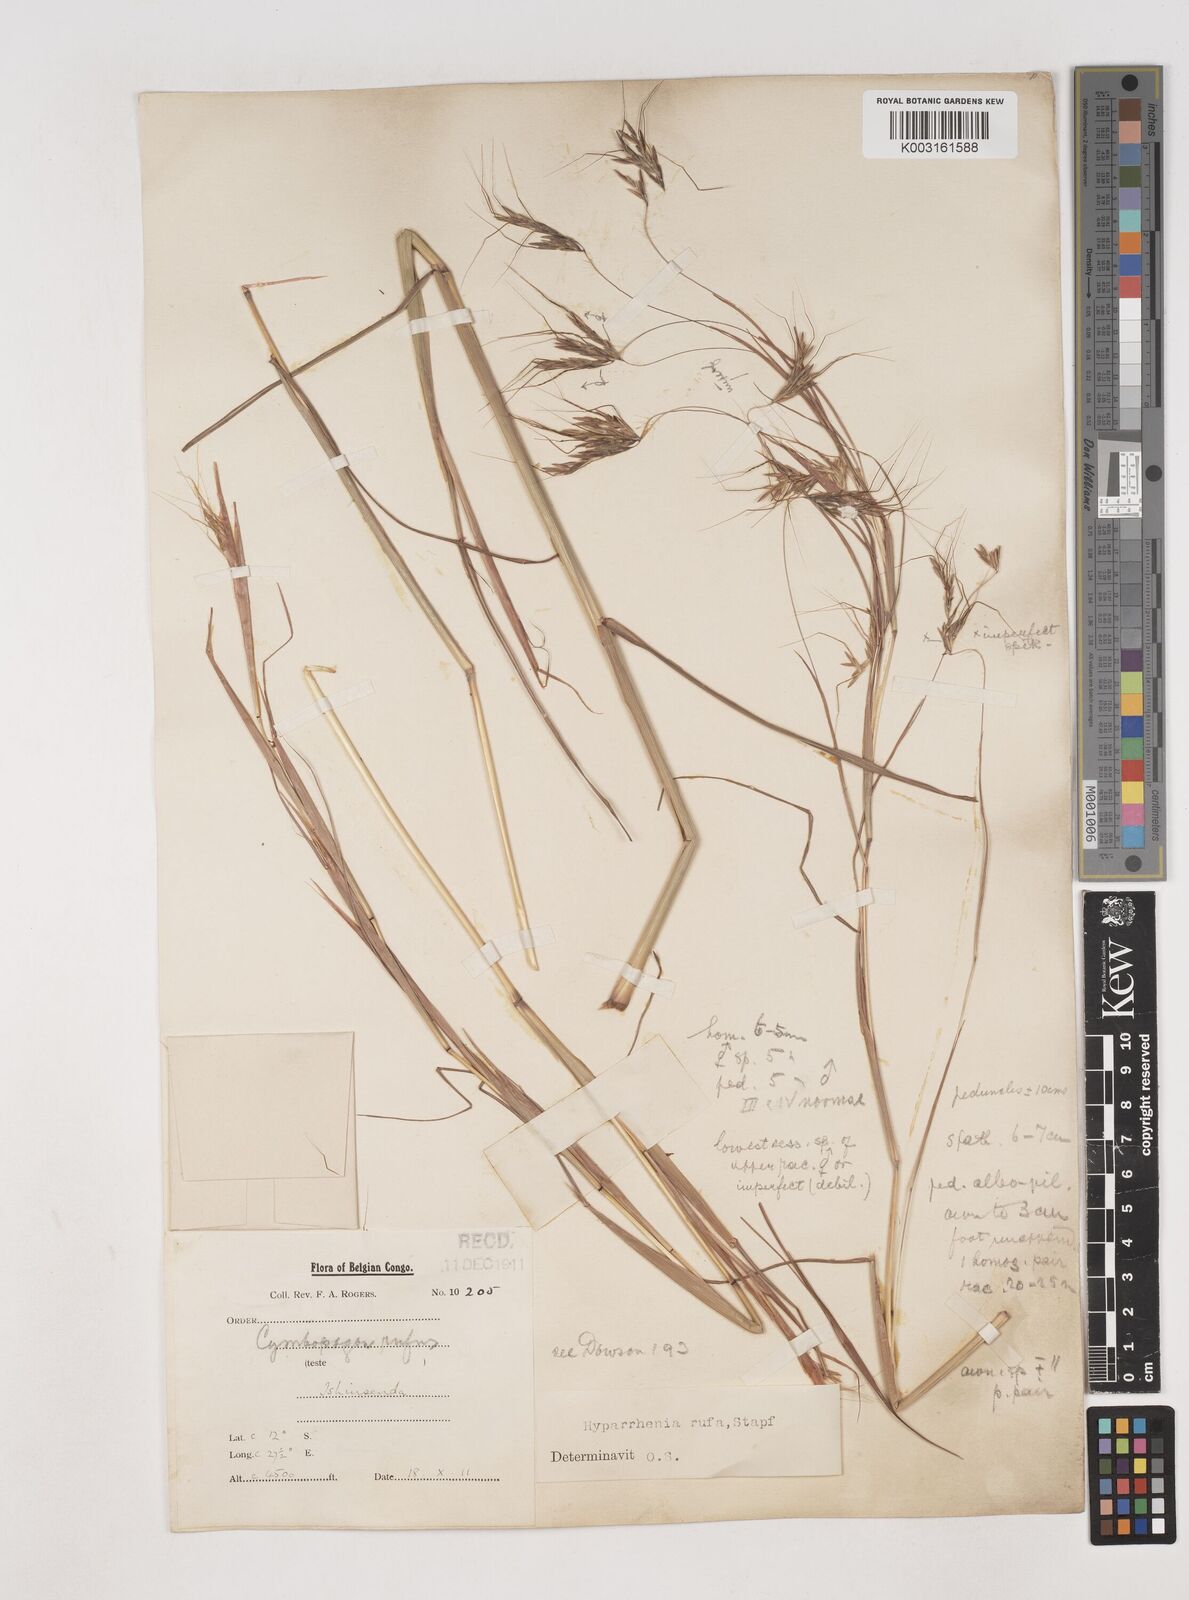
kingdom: Plantae
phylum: Tracheophyta
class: Liliopsida
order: Poales
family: Poaceae
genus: Hyparrhenia
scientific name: Hyparrhenia rufa
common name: Jaraguagrass
